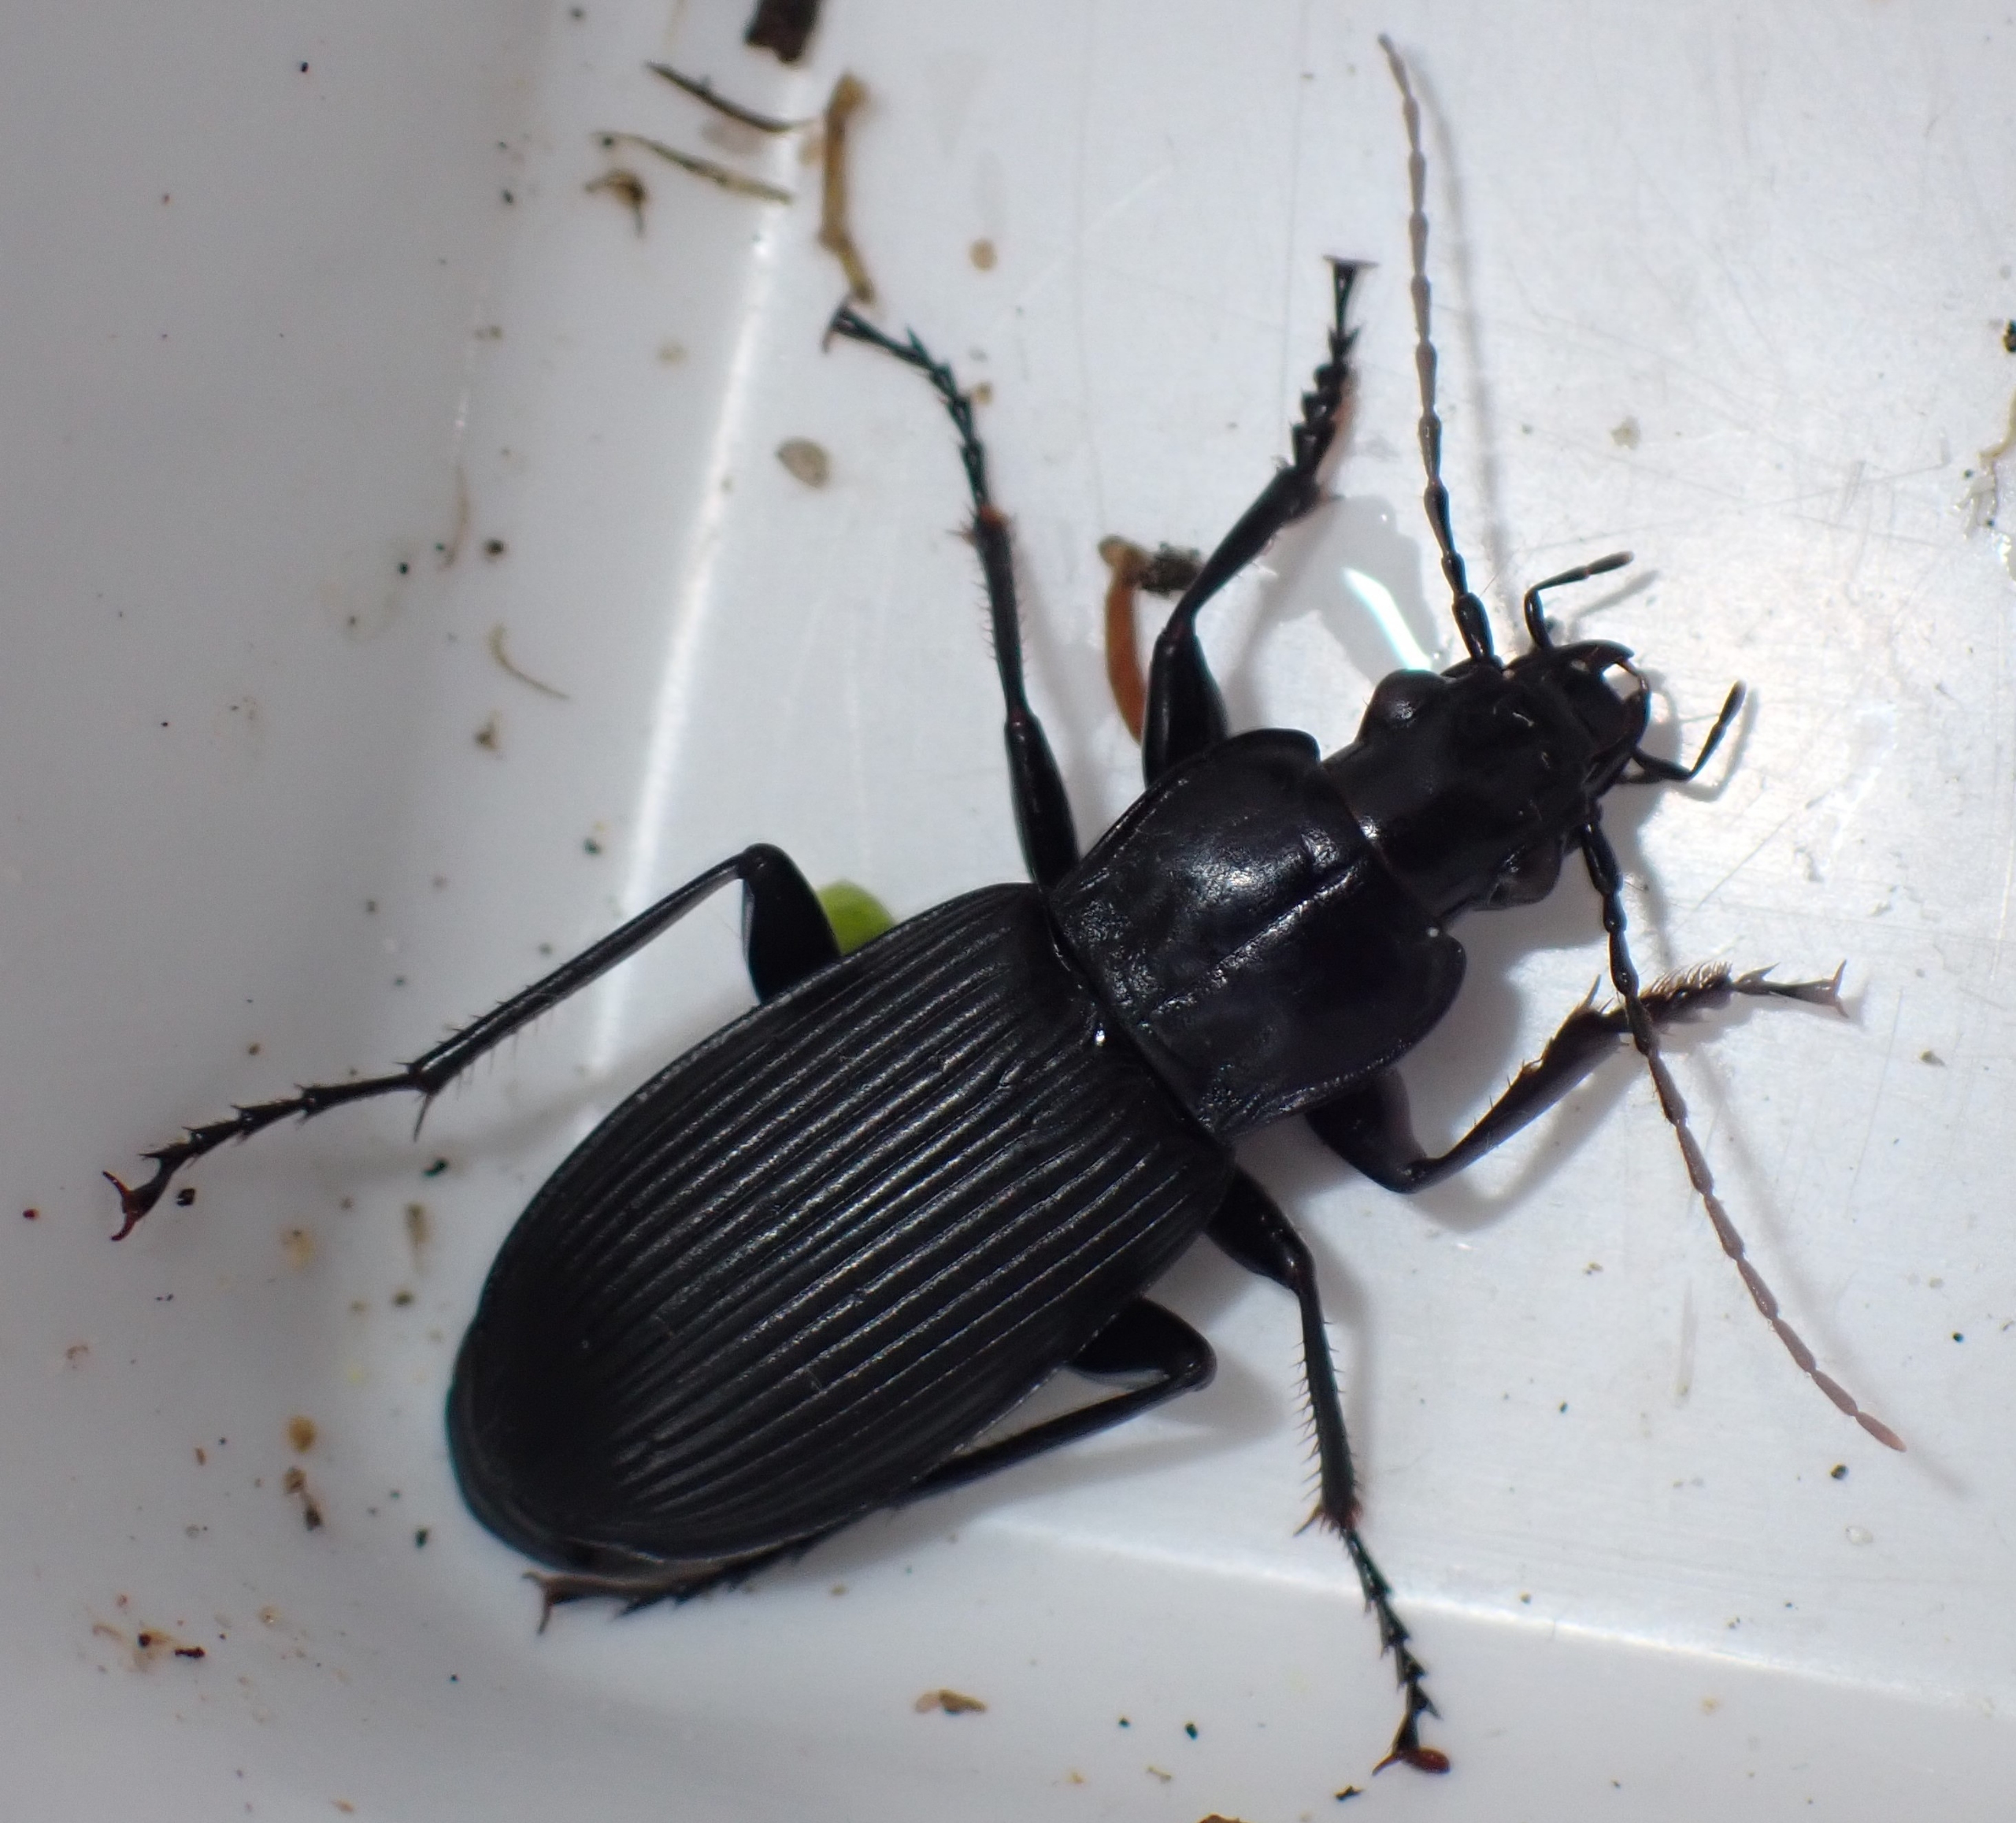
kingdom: Animalia
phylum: Arthropoda
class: Insecta
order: Coleoptera
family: Carabidae
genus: Pterostichus
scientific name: Pterostichus niger
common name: Skovjordløber
